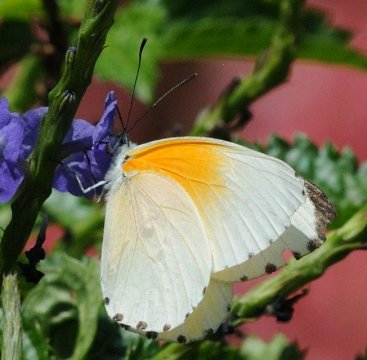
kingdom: Animalia
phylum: Arthropoda
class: Insecta
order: Lepidoptera
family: Pieridae
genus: Mylothris
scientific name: Mylothris rueppellii
